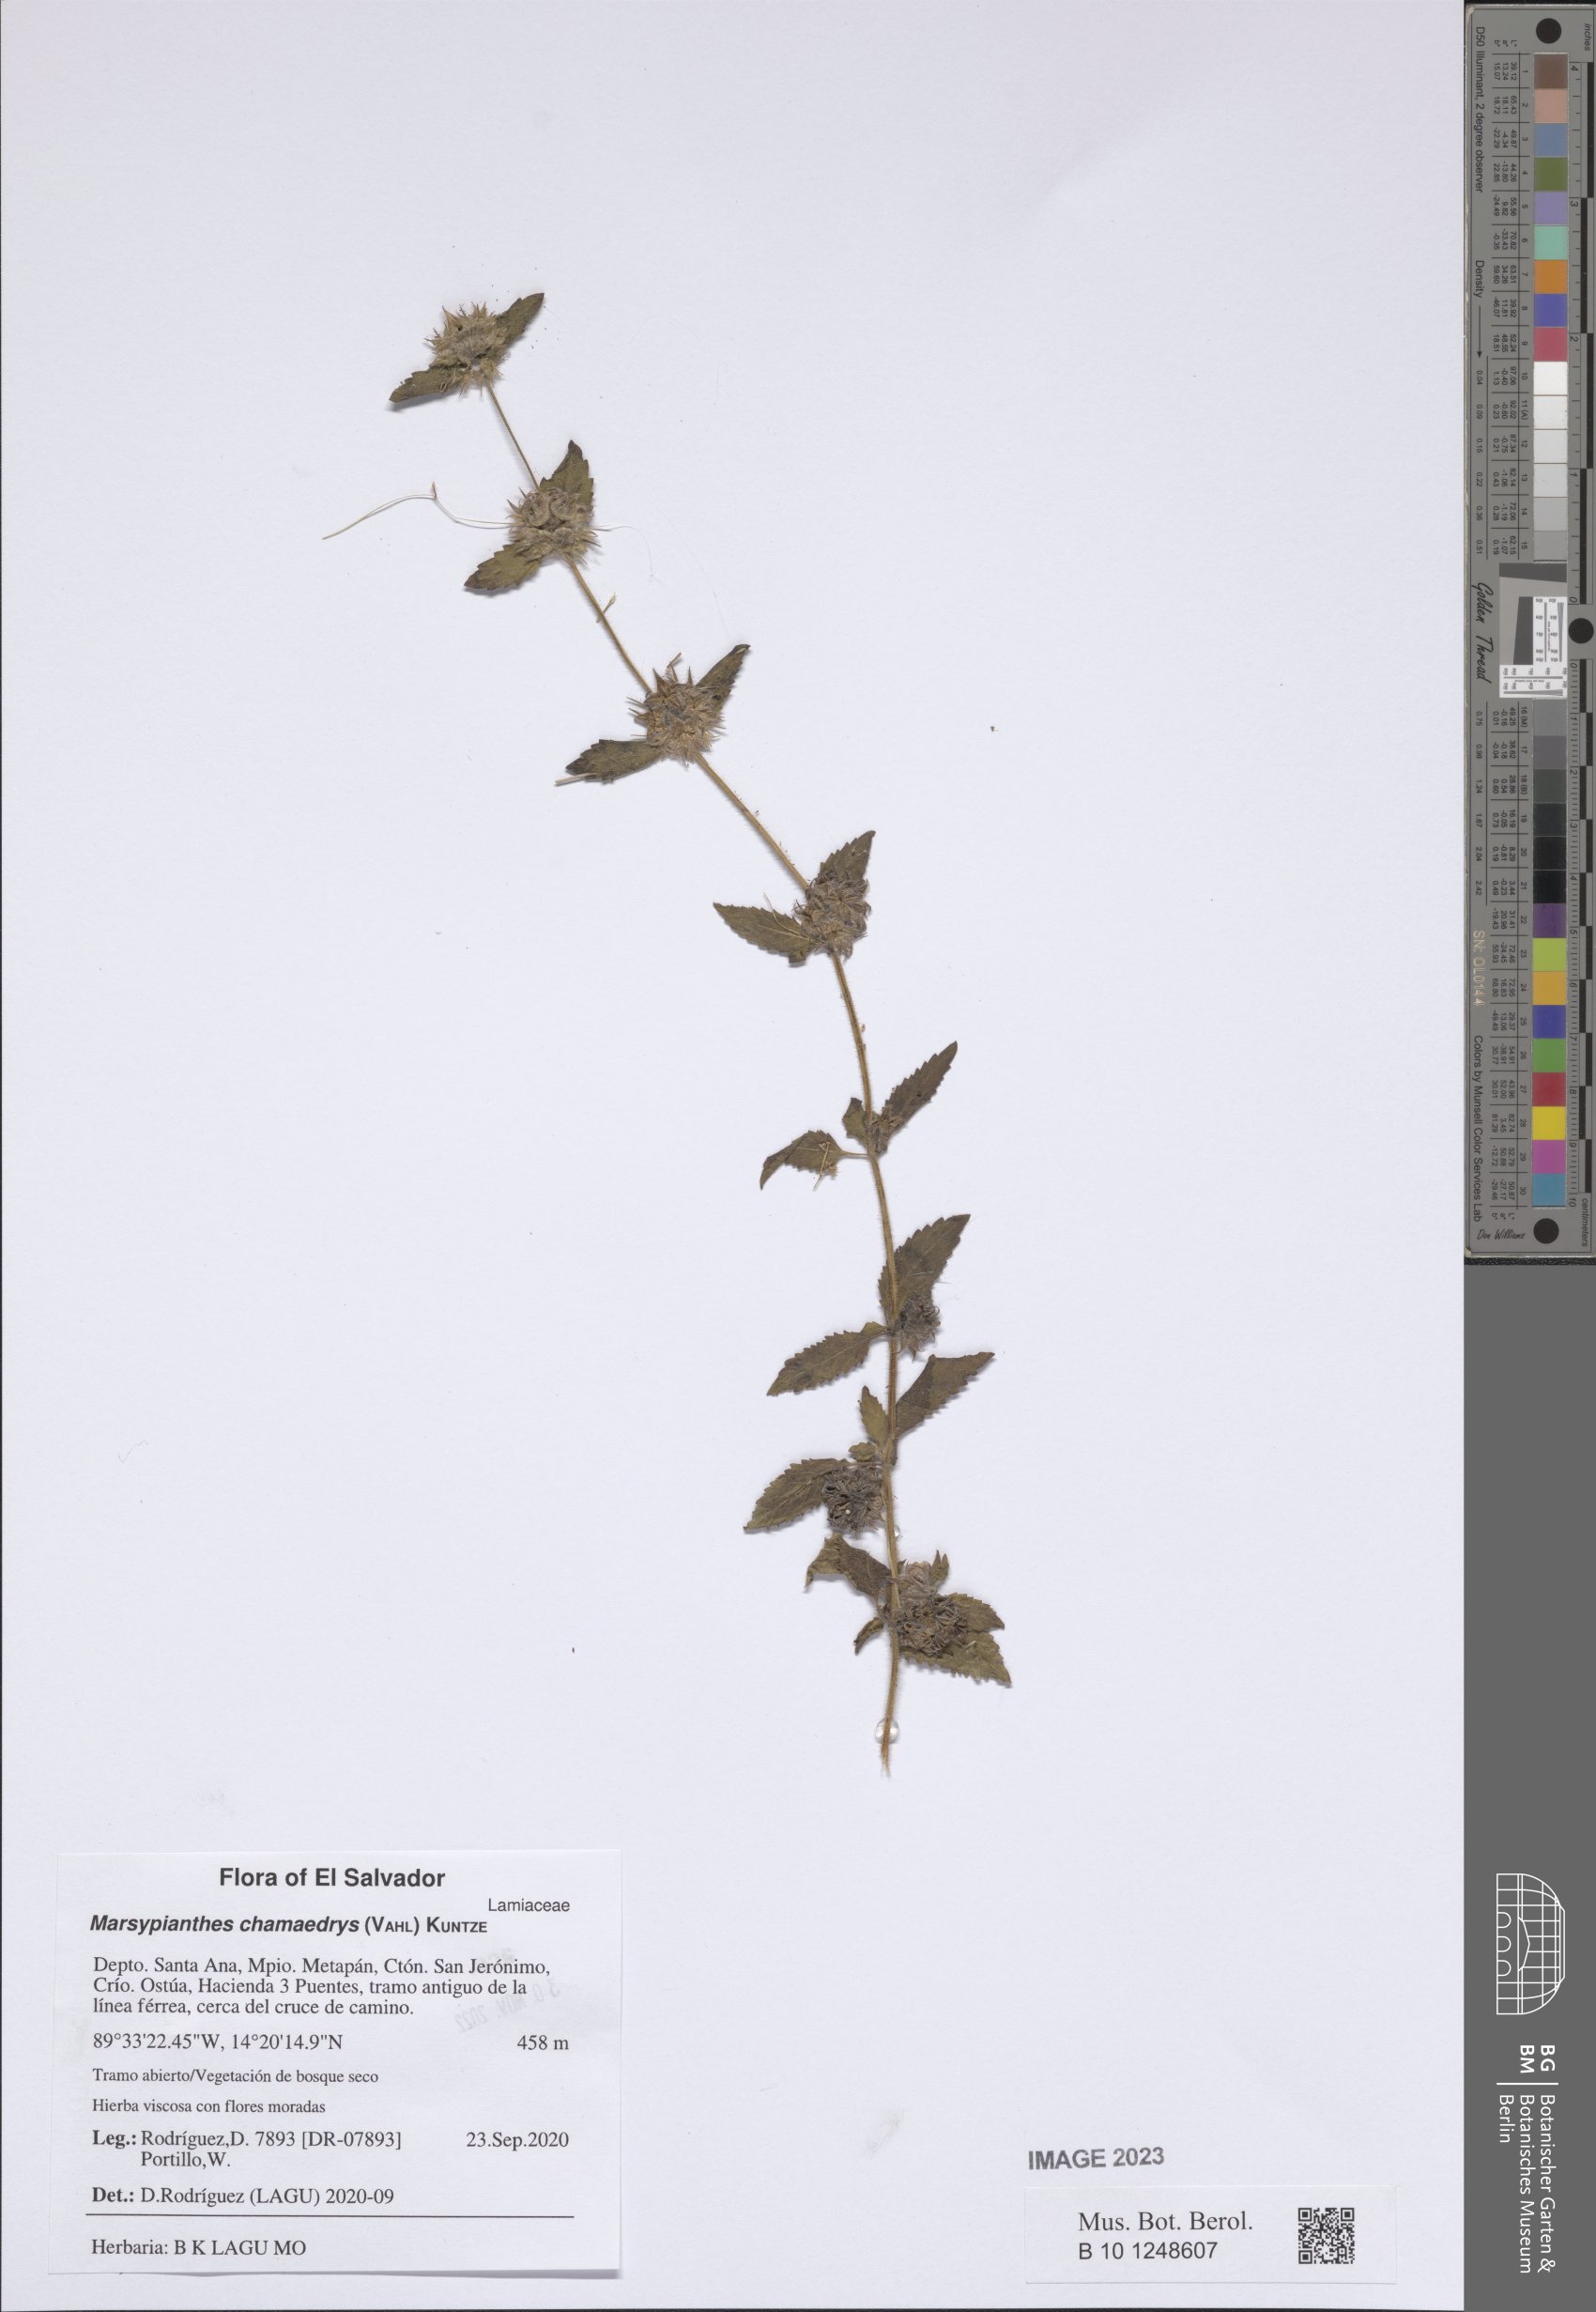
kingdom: Plantae
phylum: Tracheophyta
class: Magnoliopsida
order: Lamiales
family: Lamiaceae
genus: Marsypianthes
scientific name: Marsypianthes chamaedrys
